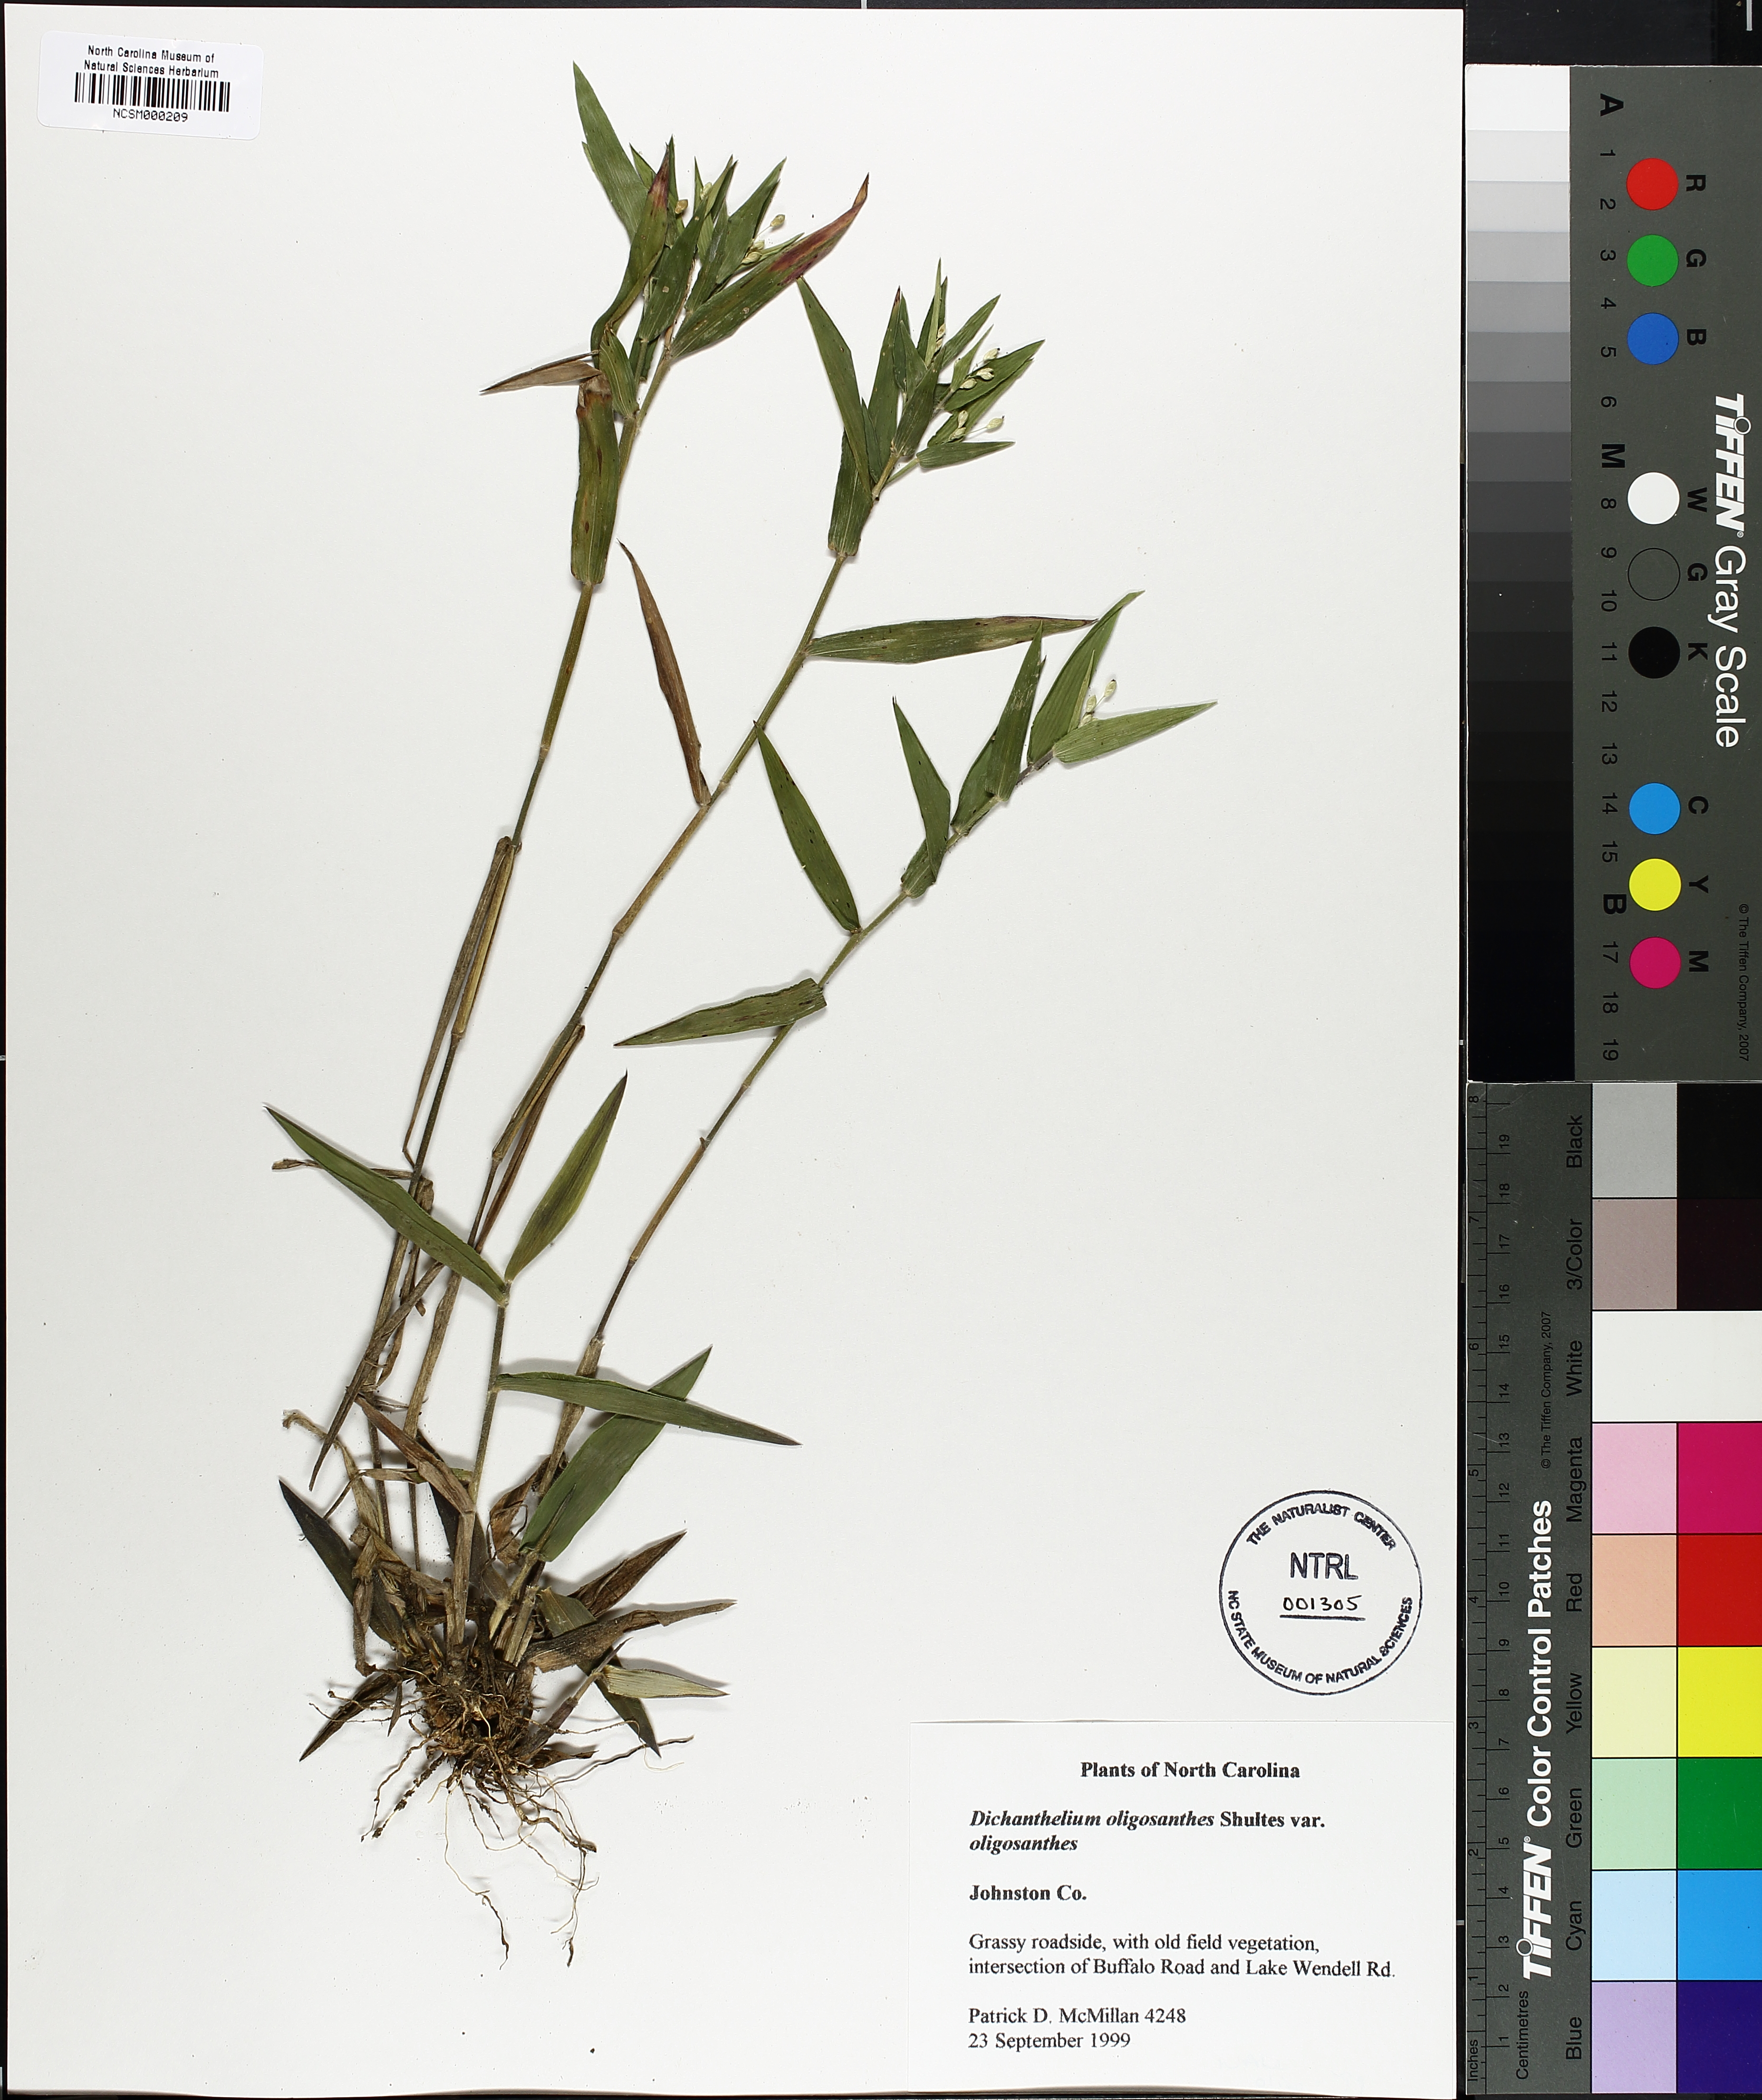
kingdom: Plantae
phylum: Tracheophyta
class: Liliopsida
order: Poales
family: Poaceae
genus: Dichanthelium
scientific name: Dichanthelium oligosanthes
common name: Few-anther obscuregrass
